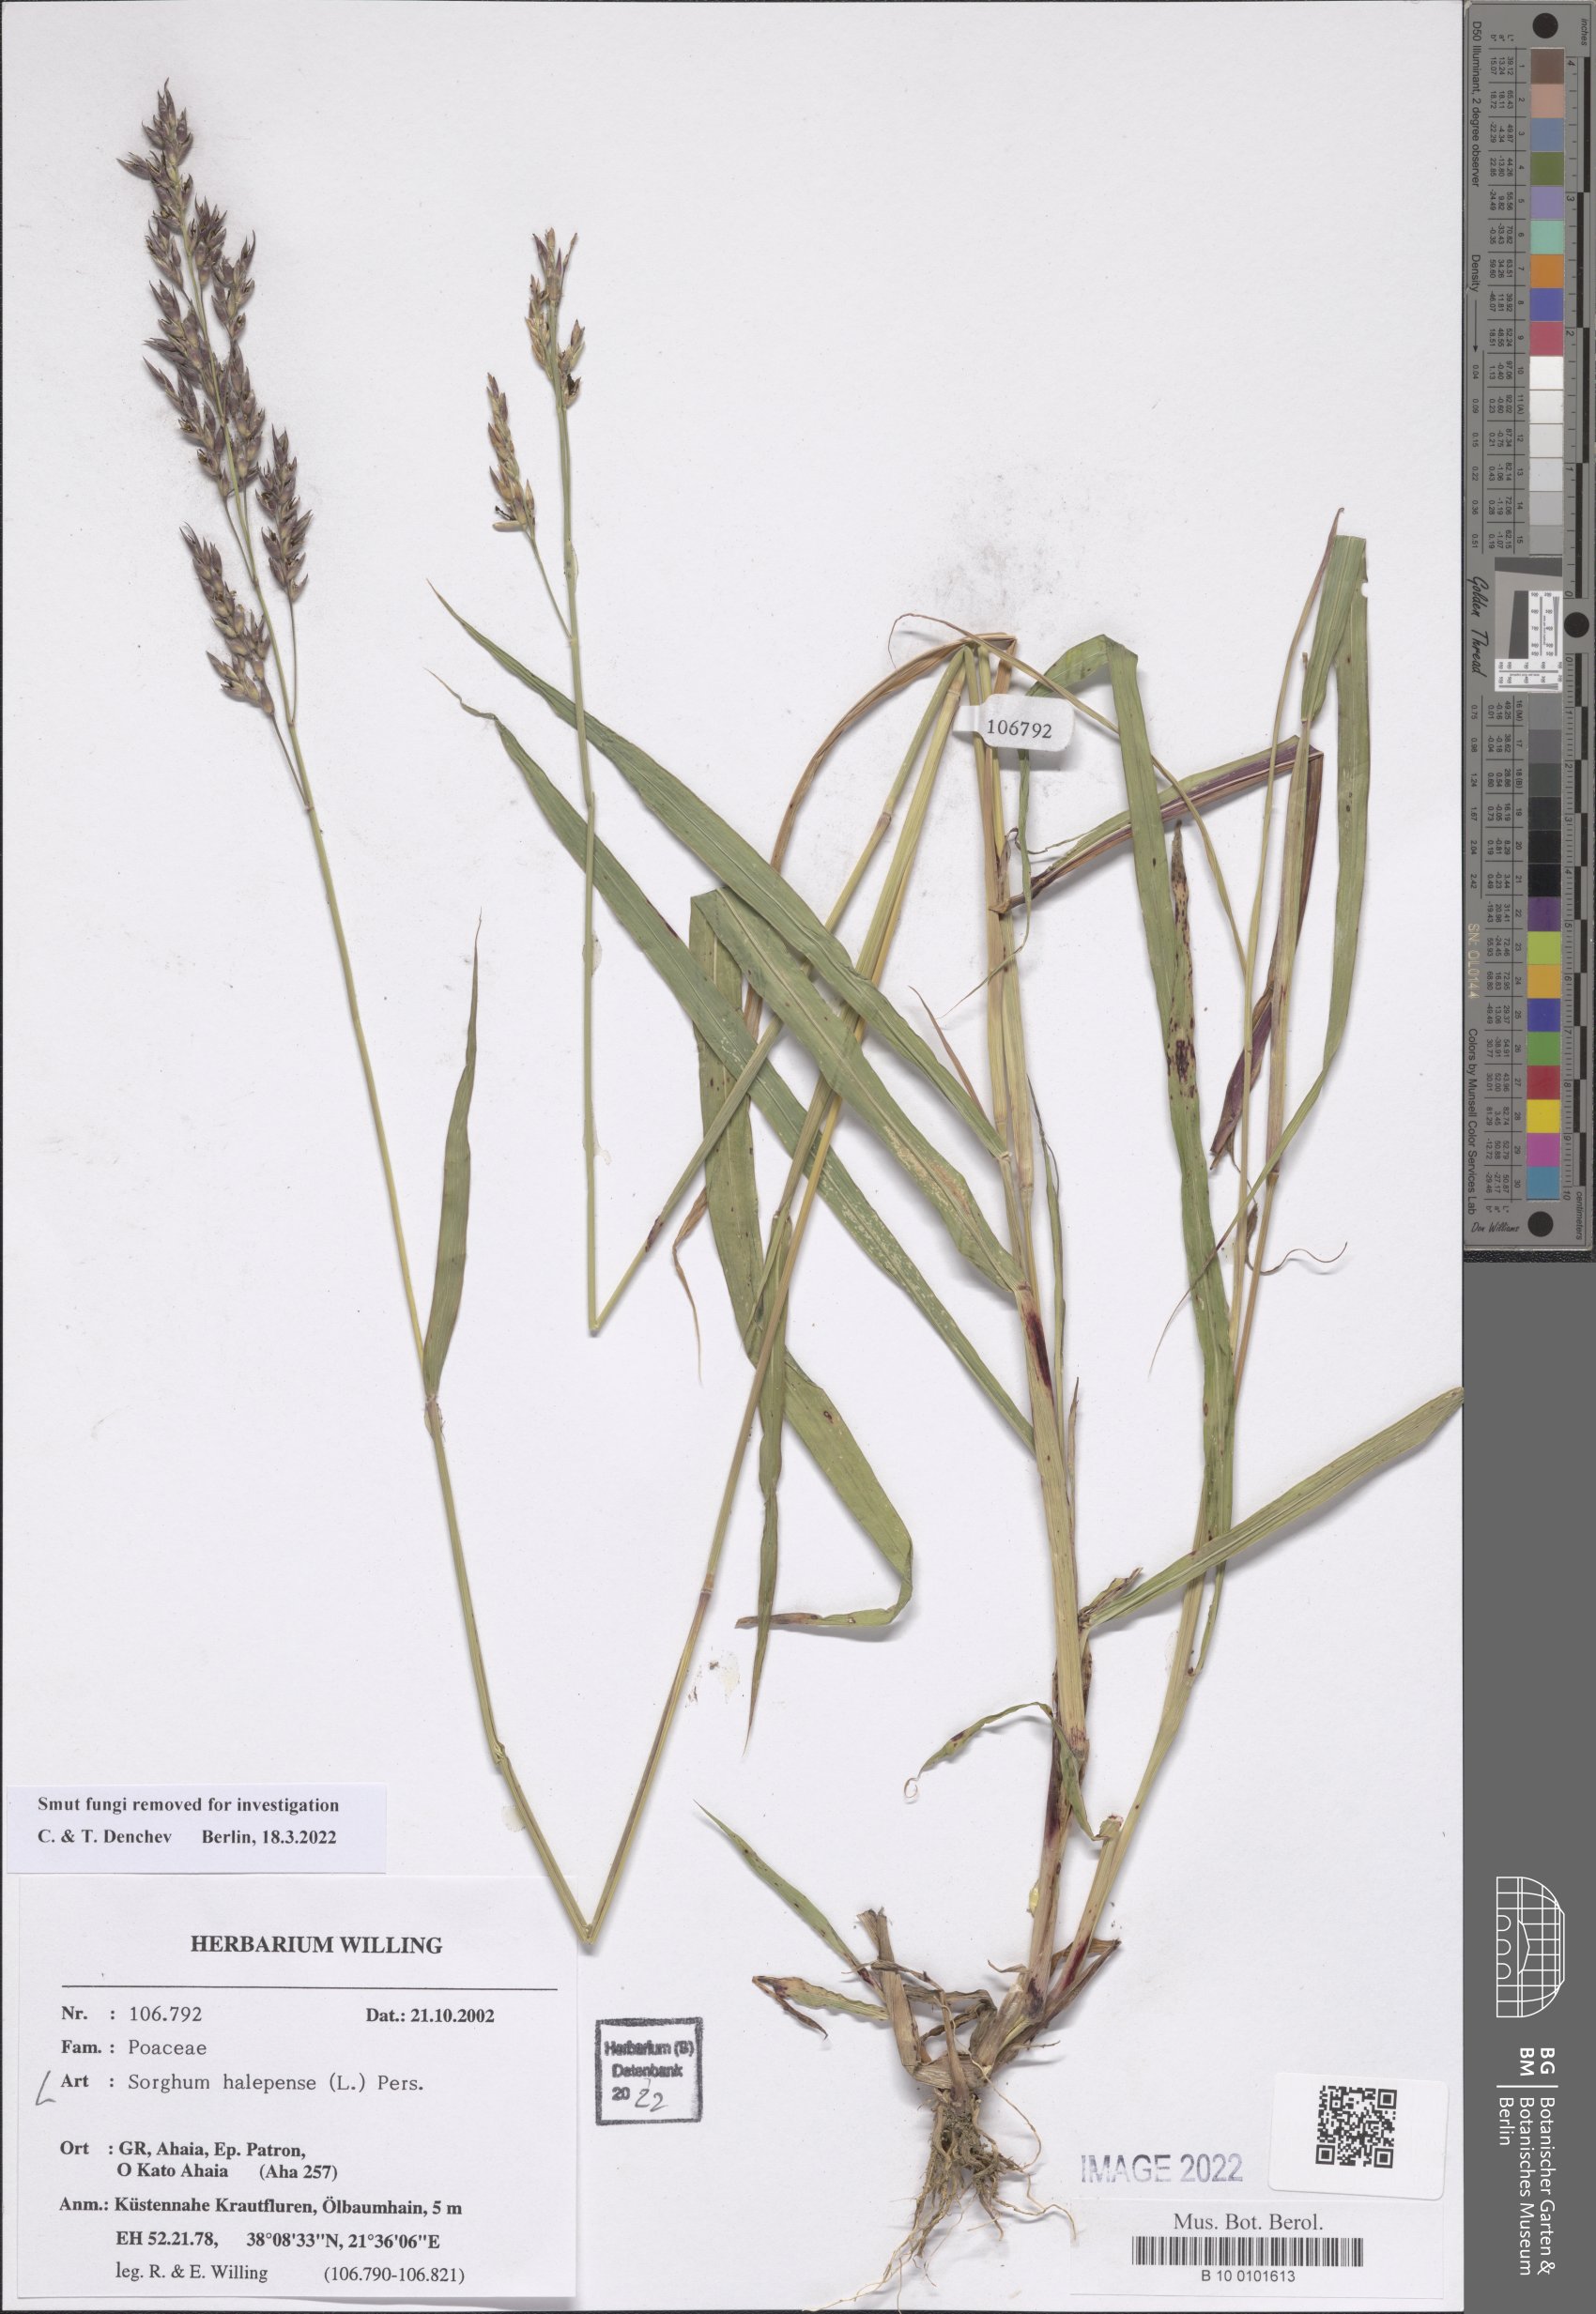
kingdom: Plantae
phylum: Tracheophyta
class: Liliopsida
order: Poales
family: Poaceae
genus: Sorghum
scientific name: Sorghum halepense
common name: Johnson-grass
